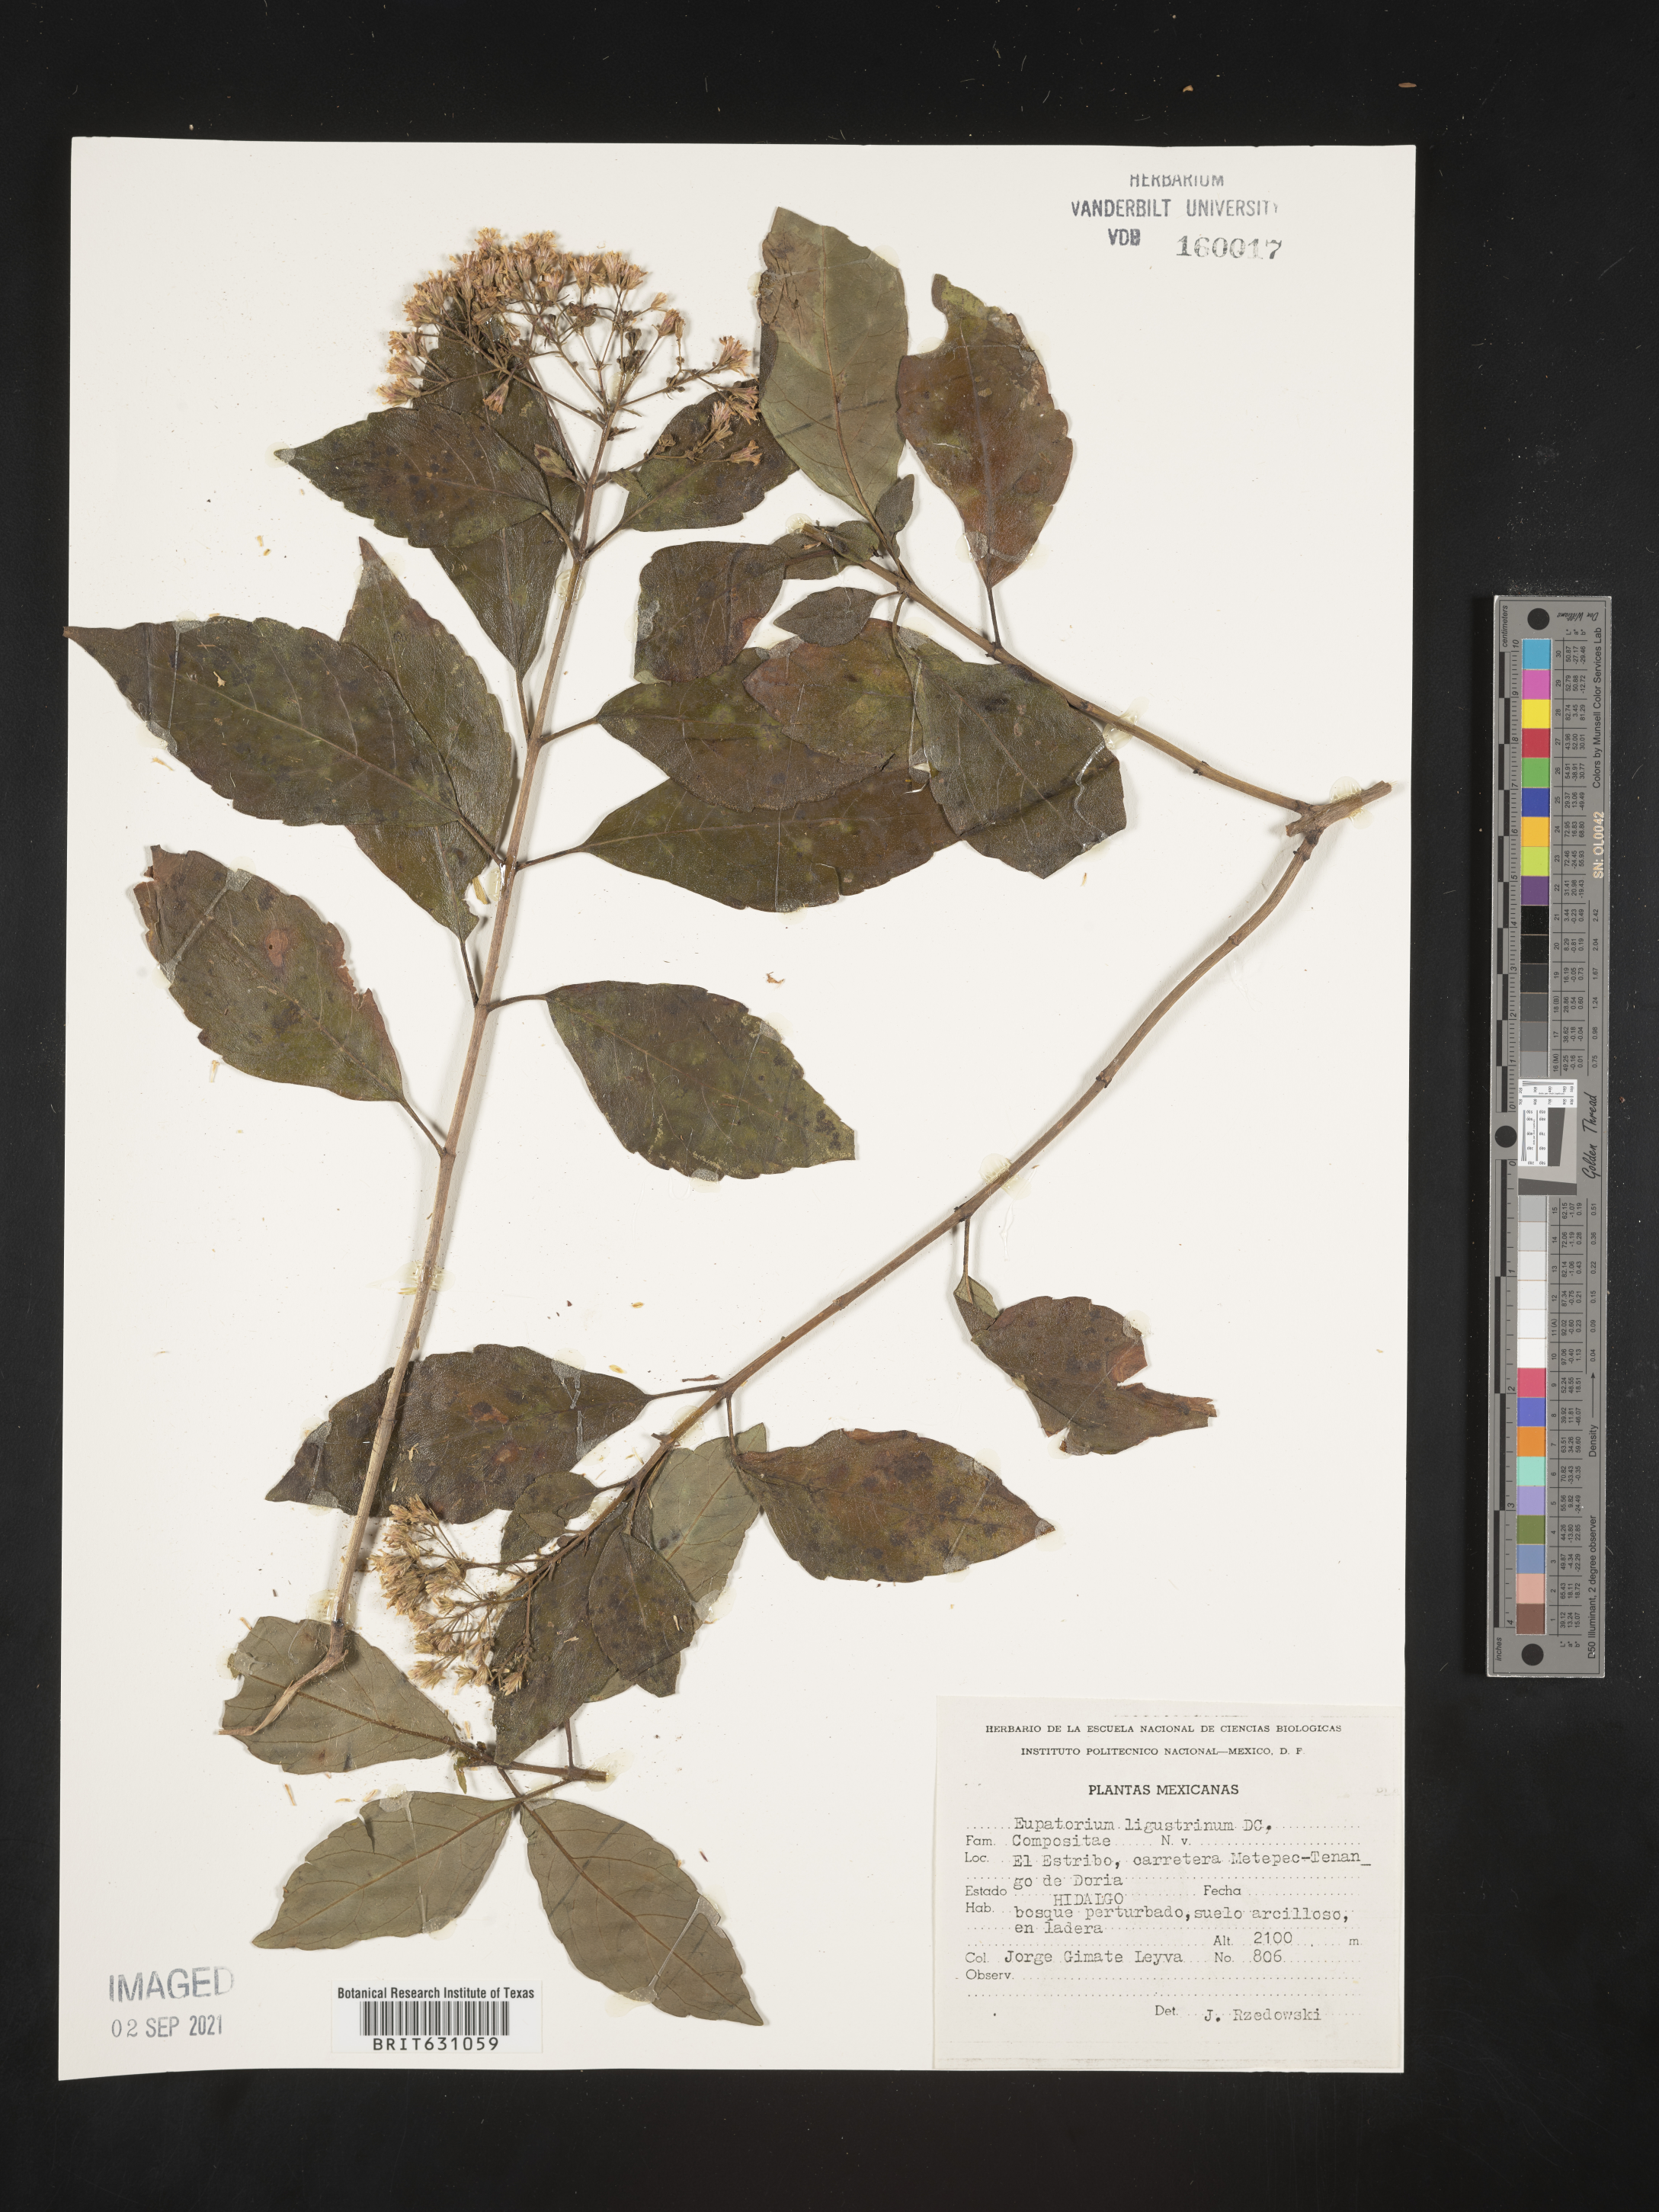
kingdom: Plantae
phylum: Tracheophyta
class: Magnoliopsida
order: Asterales
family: Asteraceae
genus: Eupatorium
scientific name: Eupatorium
